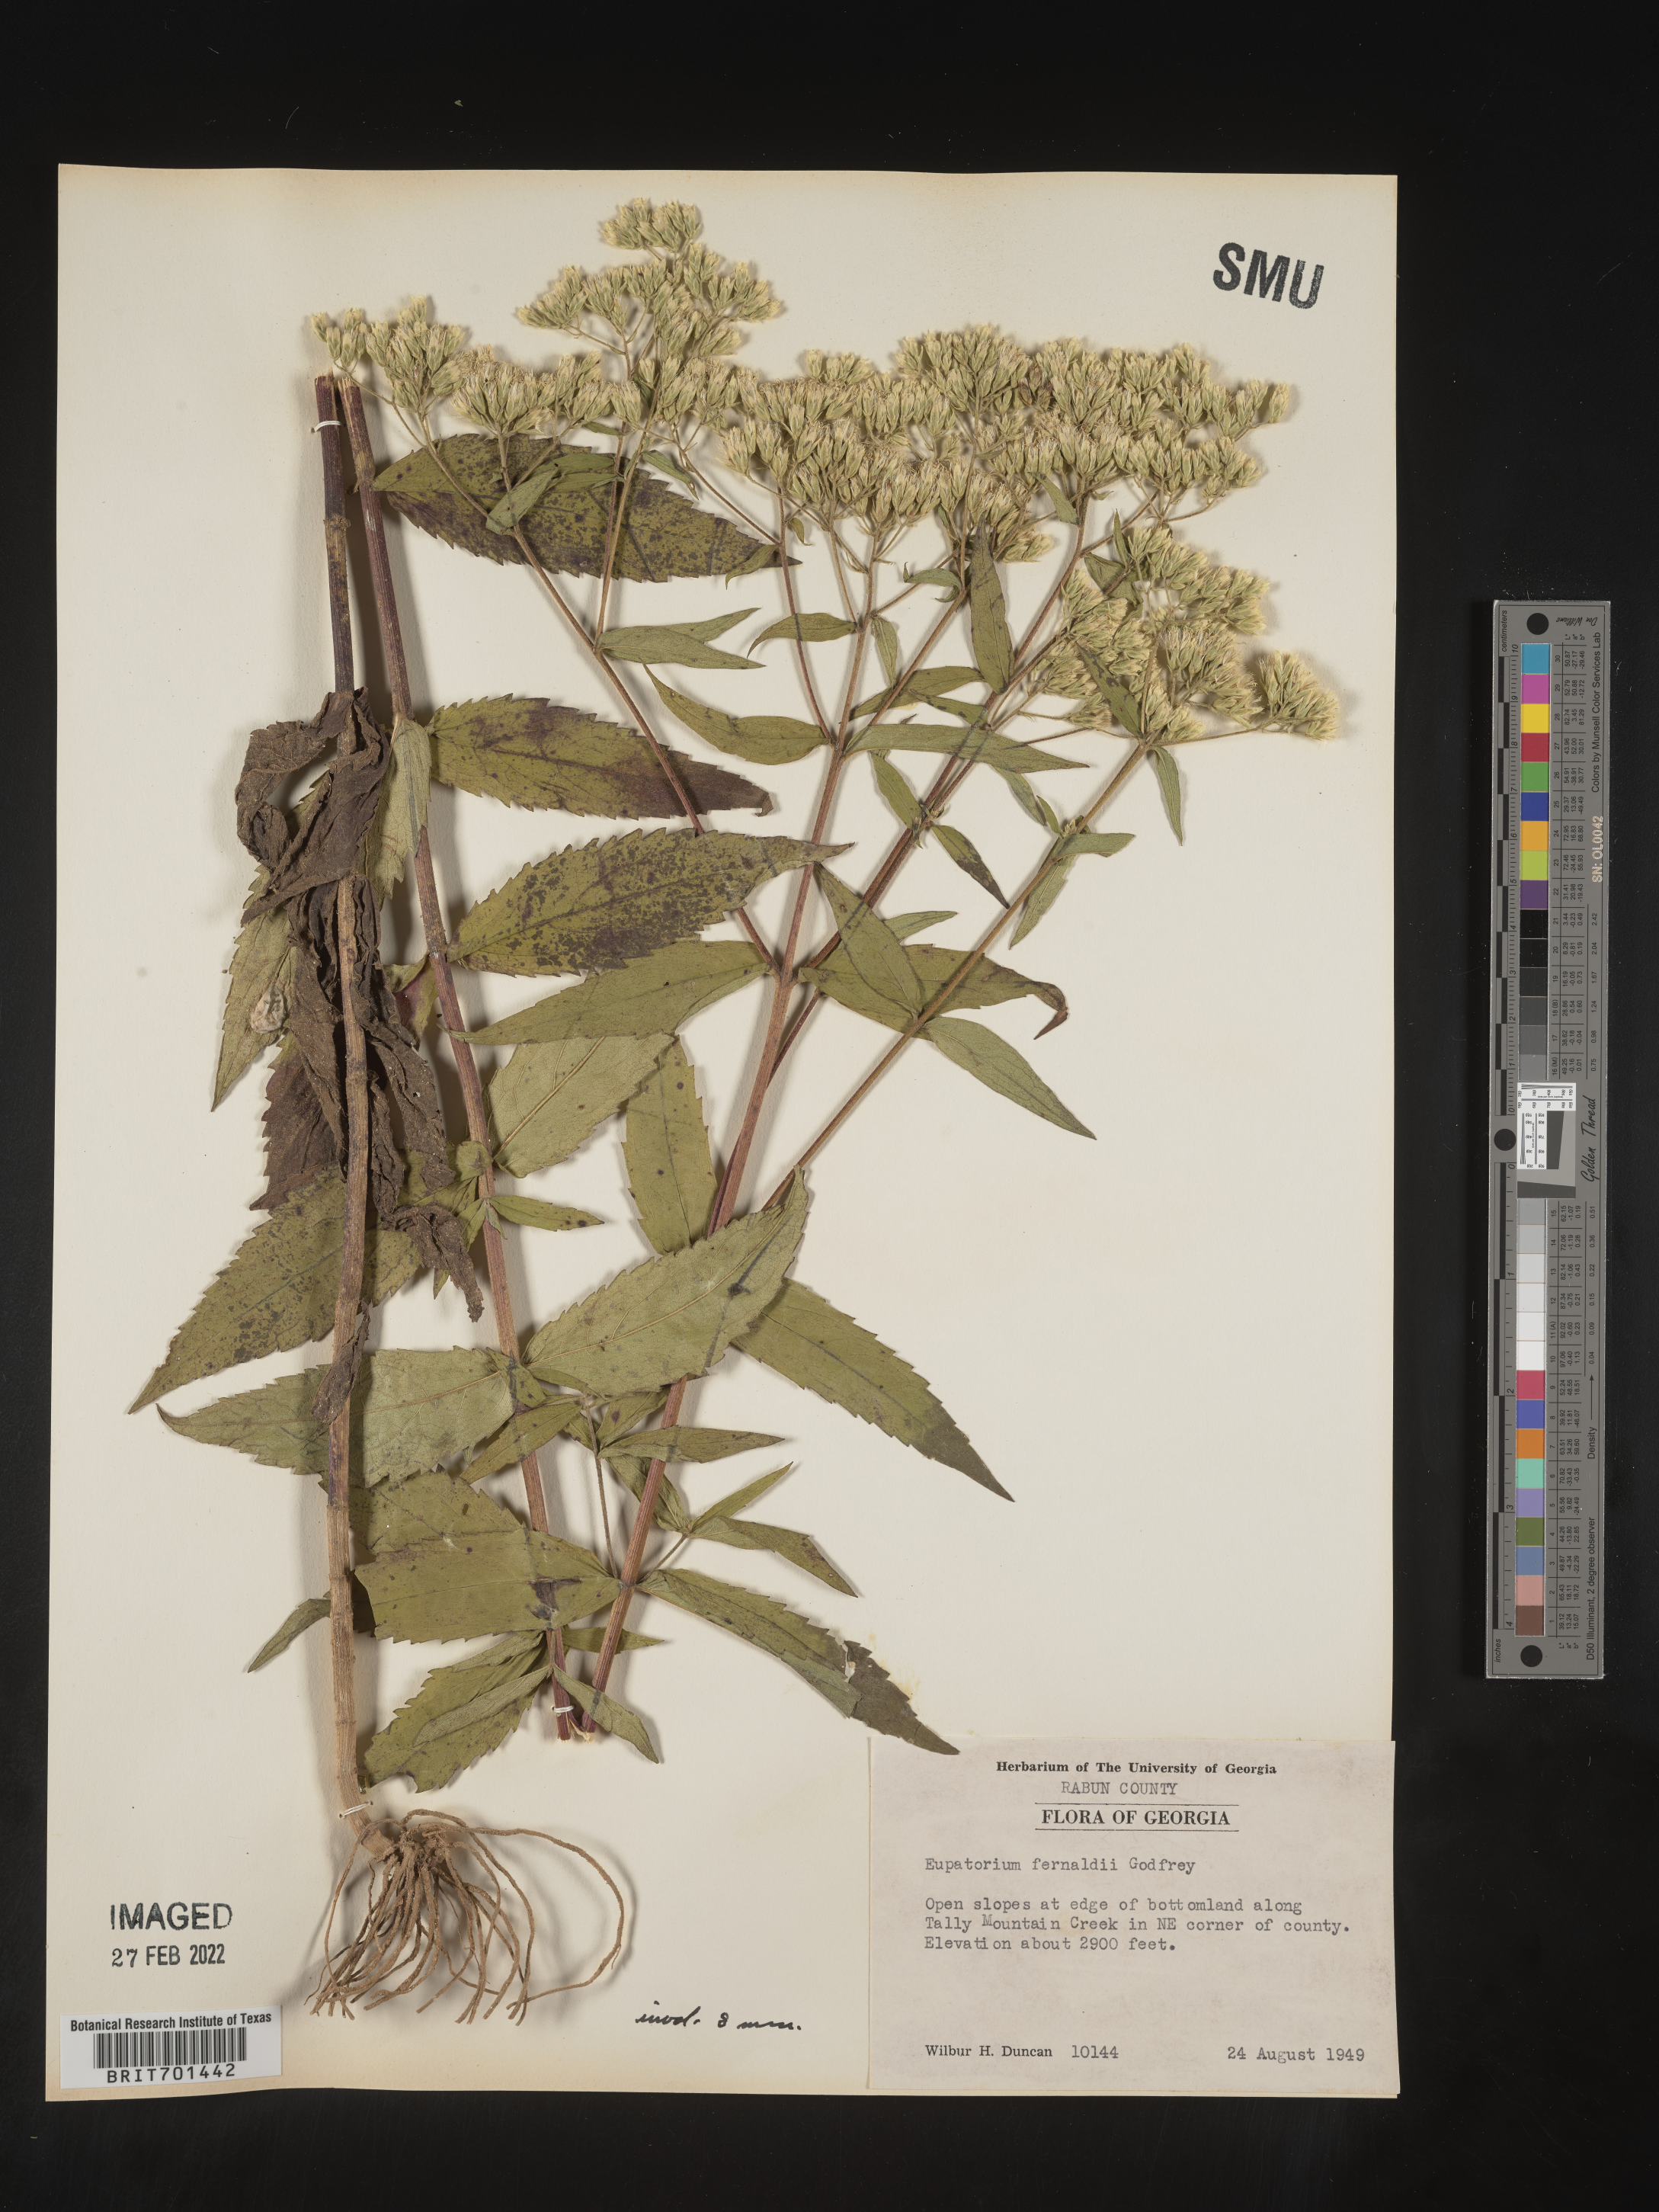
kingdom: Plantae
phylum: Tracheophyta
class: Magnoliopsida
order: Asterales
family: Asteraceae
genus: Eupatorium
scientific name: Eupatorium
